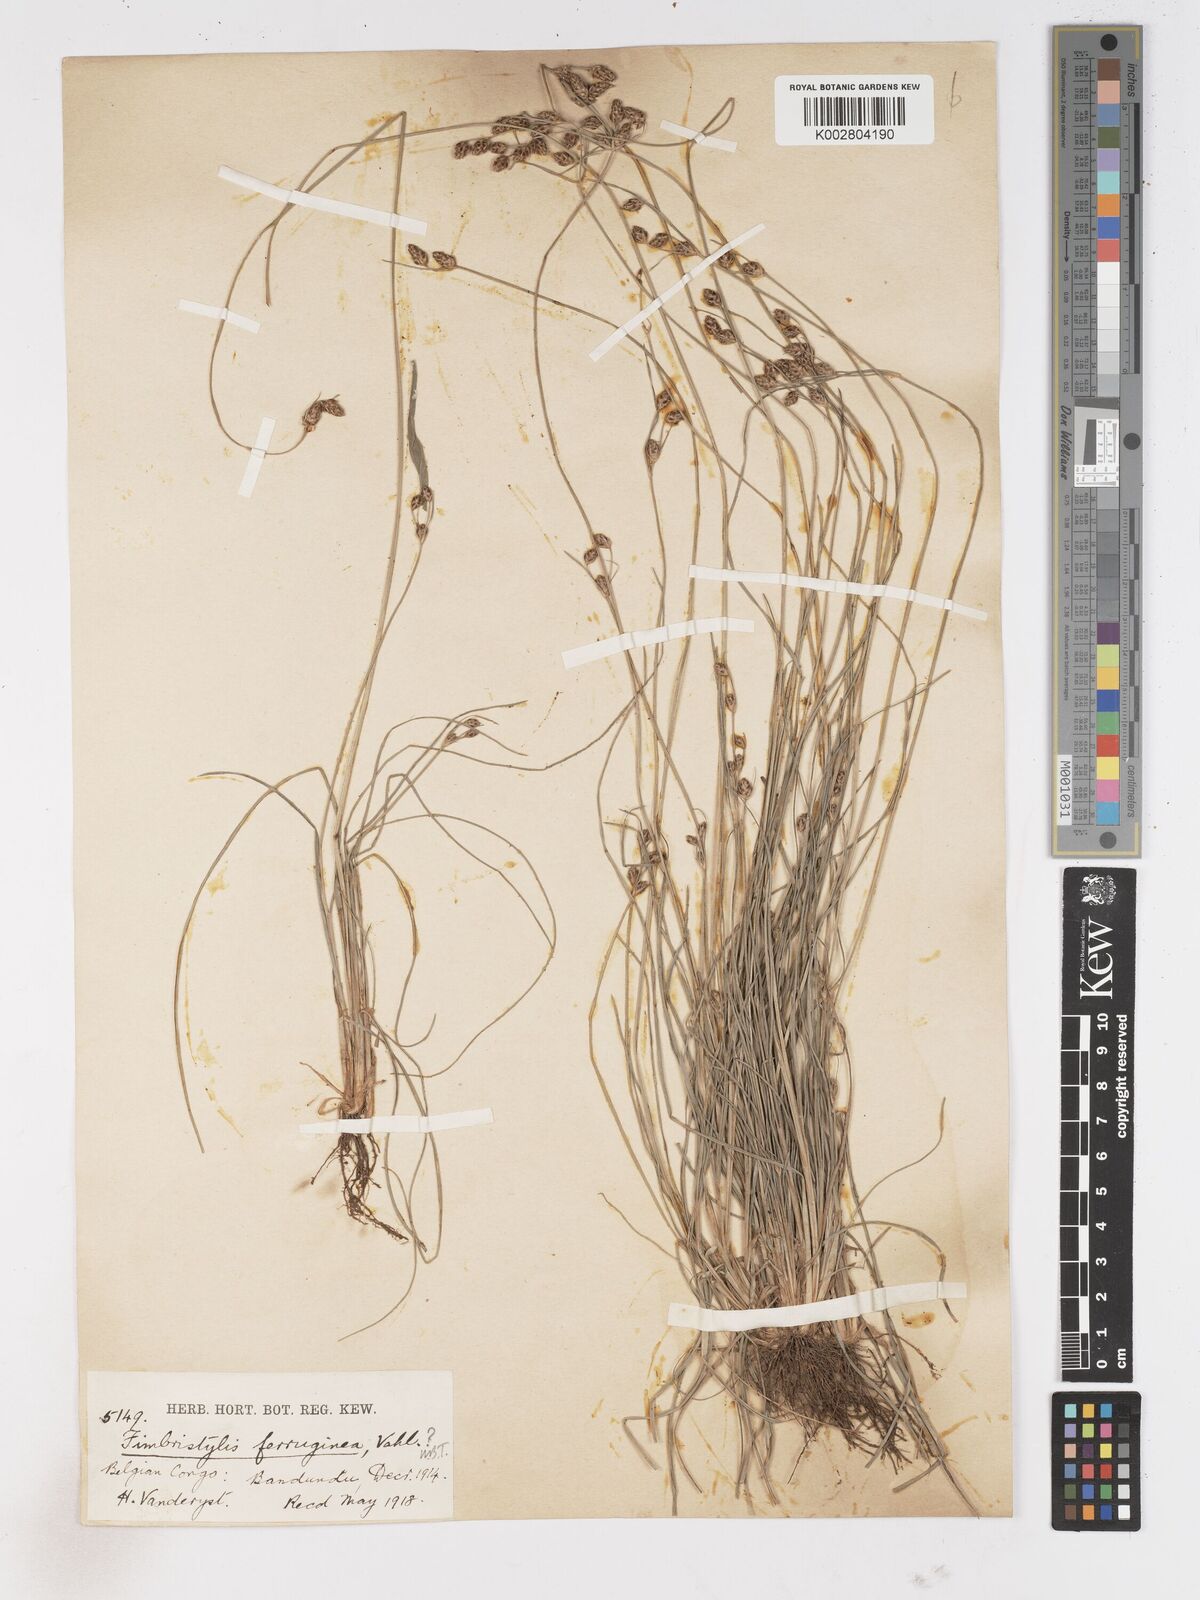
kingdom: Plantae
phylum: Tracheophyta
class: Liliopsida
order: Poales
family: Cyperaceae
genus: Fimbristylis
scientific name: Fimbristylis pilosa
